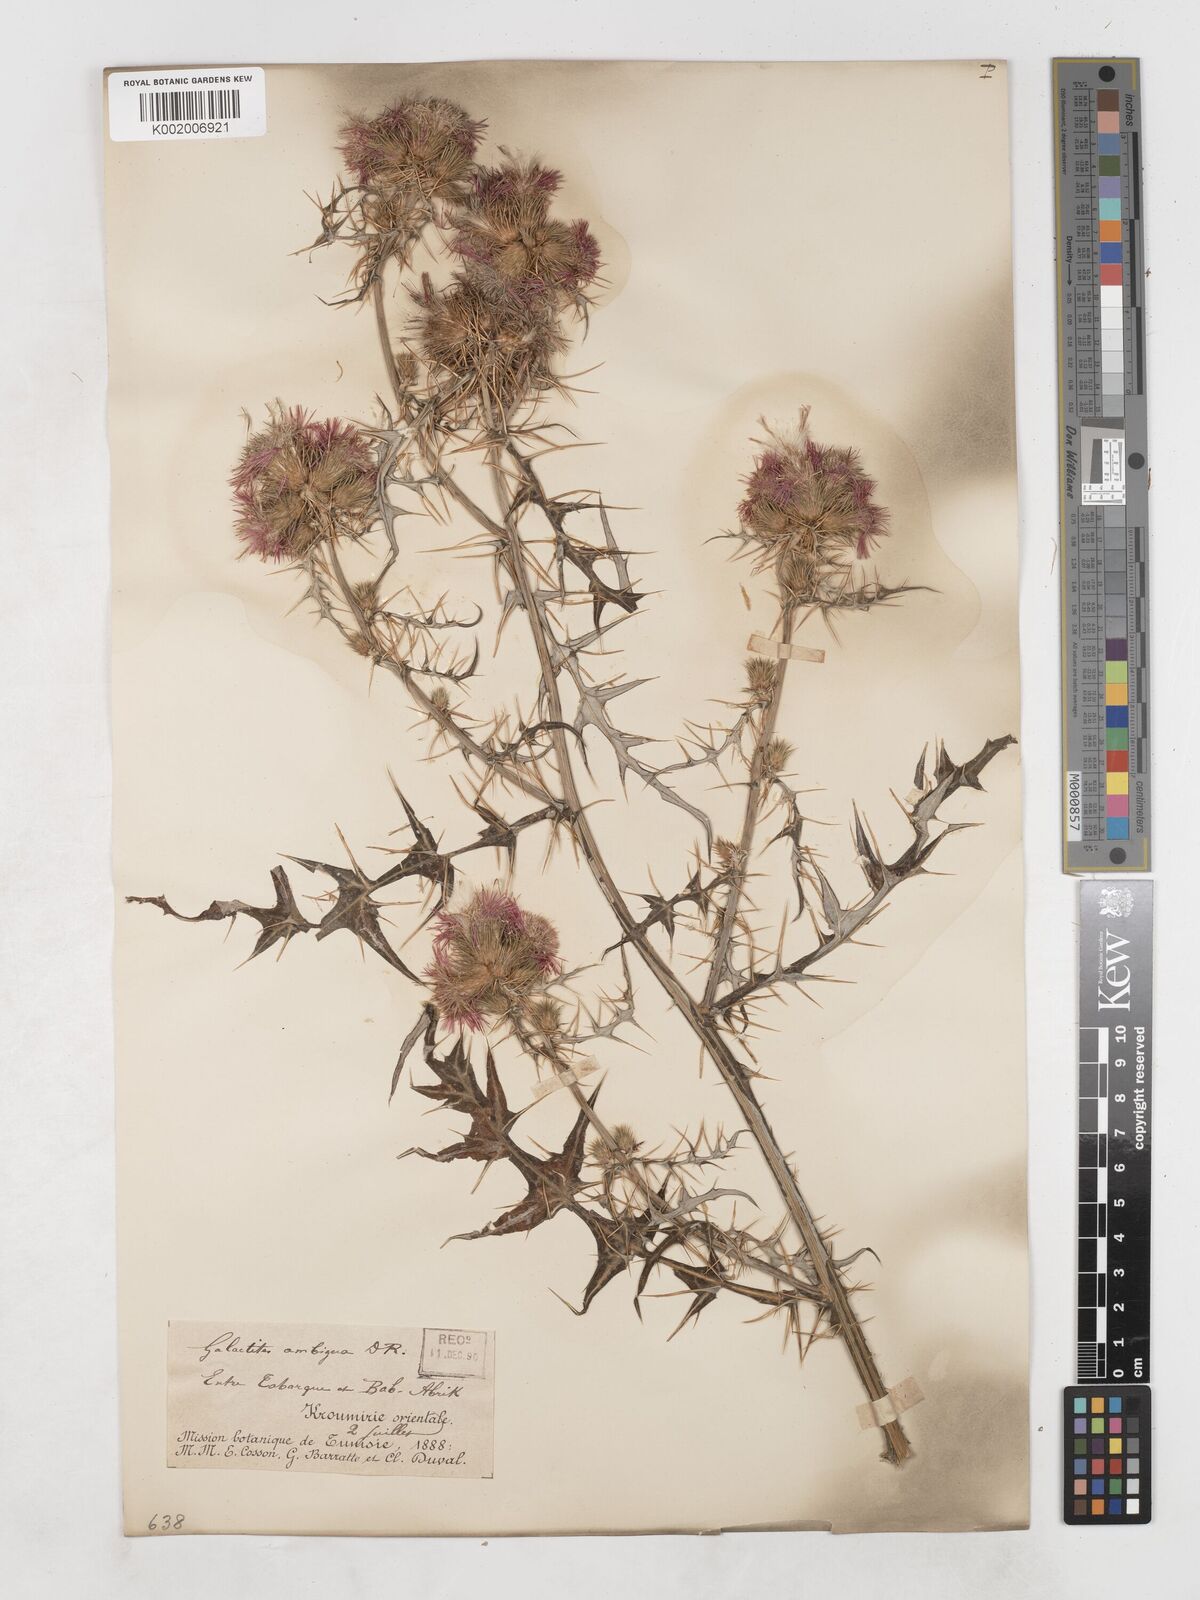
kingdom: Plantae
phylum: Tracheophyta
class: Magnoliopsida
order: Asterales
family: Asteraceae
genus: Galactites
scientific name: Galactites tomentosa
